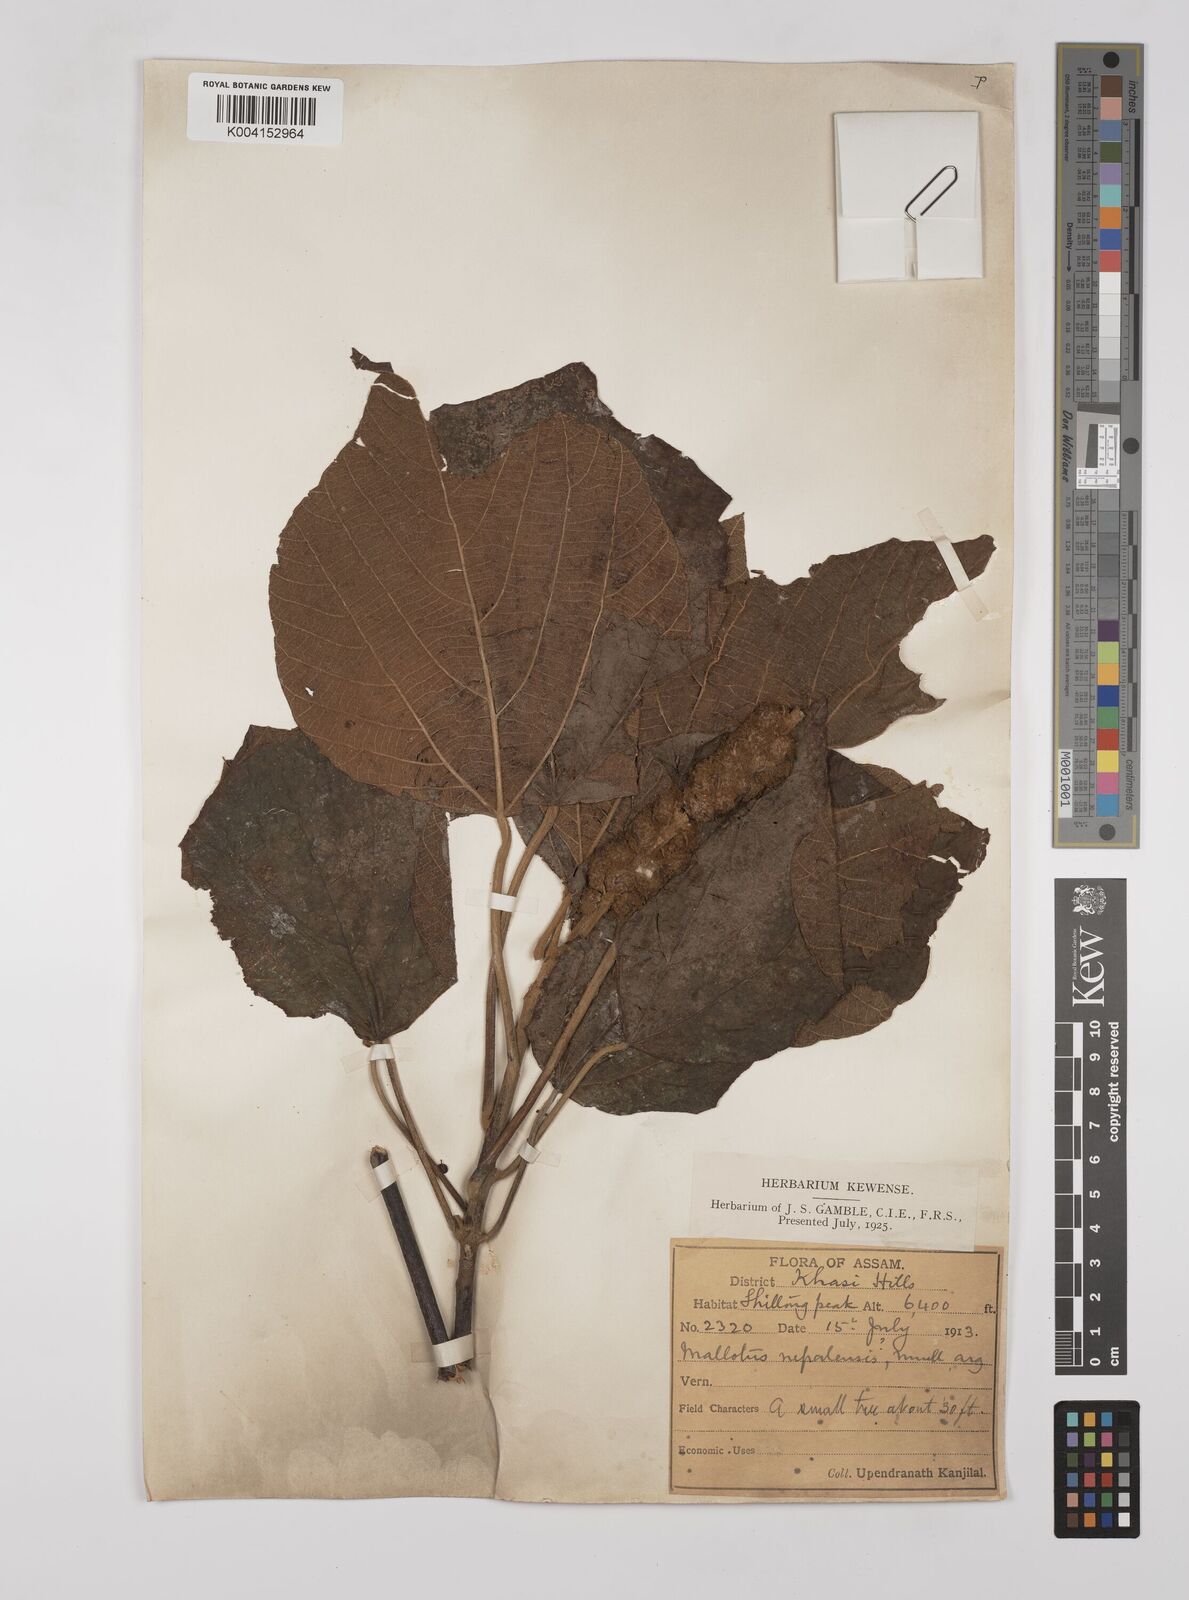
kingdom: Plantae
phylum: Tracheophyta
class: Magnoliopsida
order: Malpighiales
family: Euphorbiaceae
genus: Mallotus
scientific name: Mallotus nepalensis
